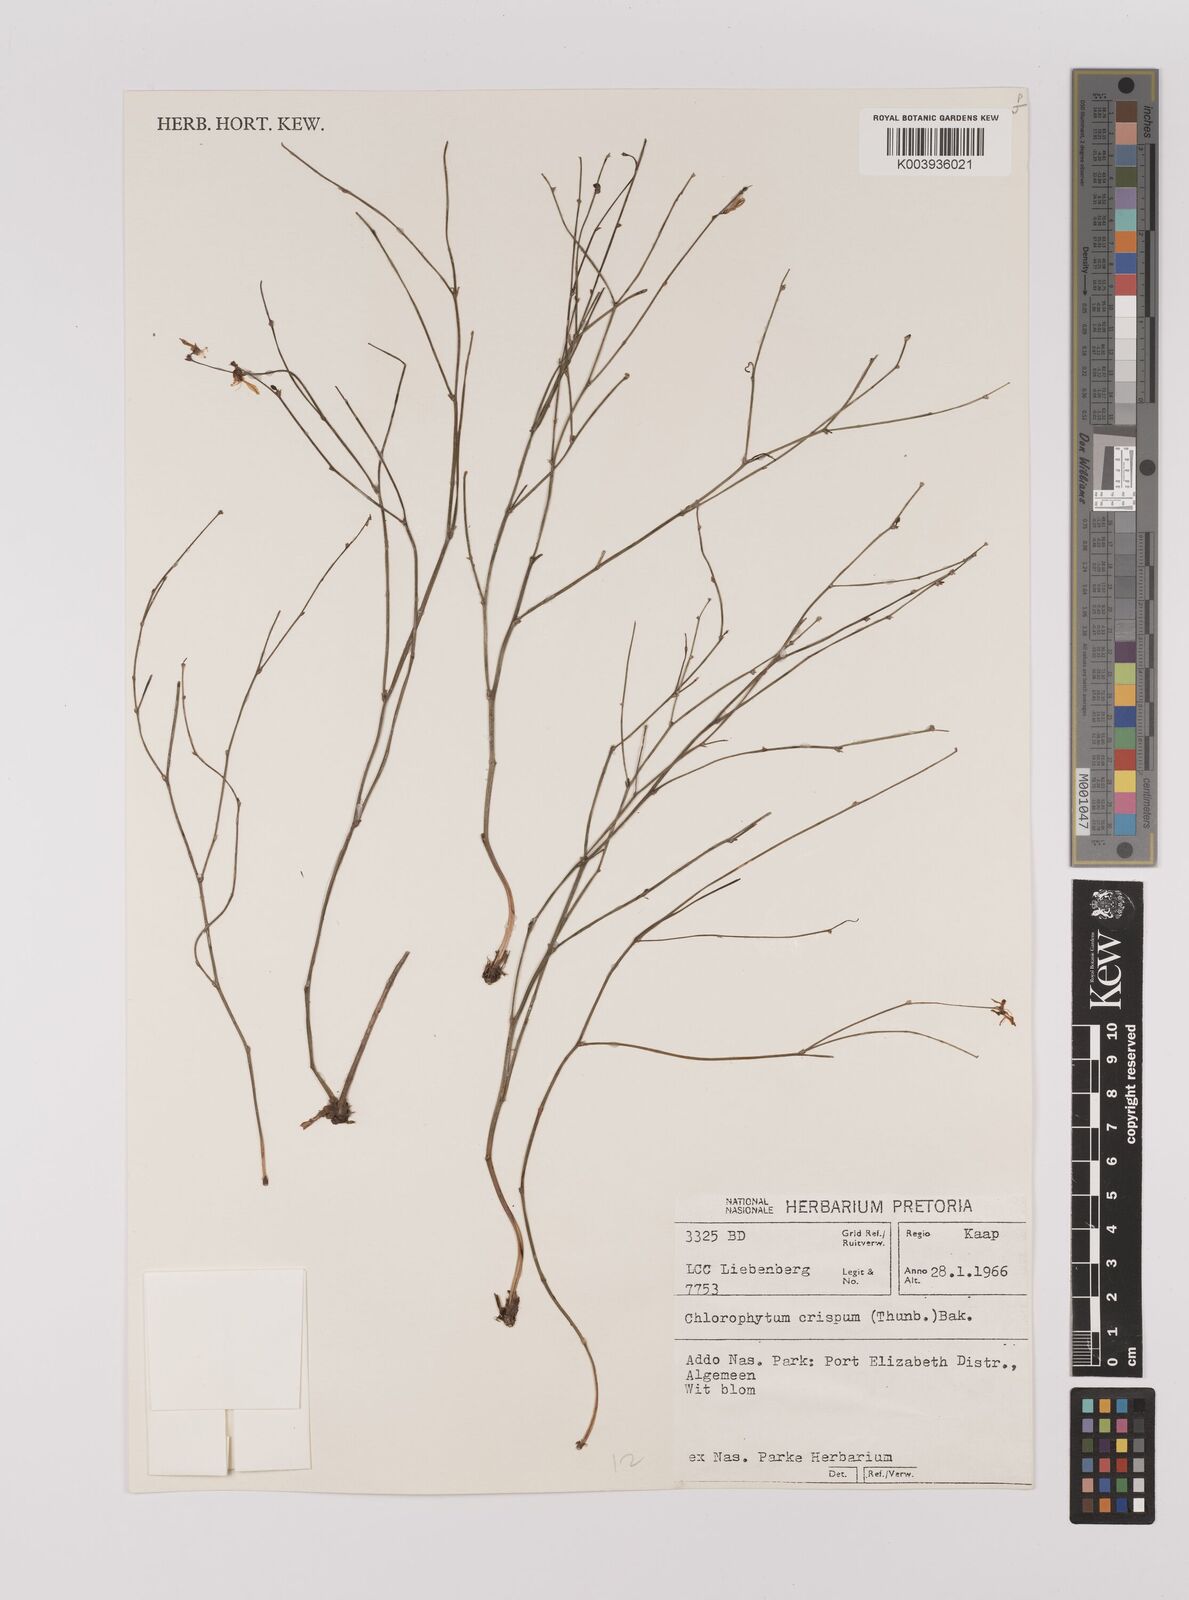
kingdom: Plantae
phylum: Tracheophyta
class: Liliopsida
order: Asparagales
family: Asparagaceae
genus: Chlorophytum
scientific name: Chlorophytum crispum
